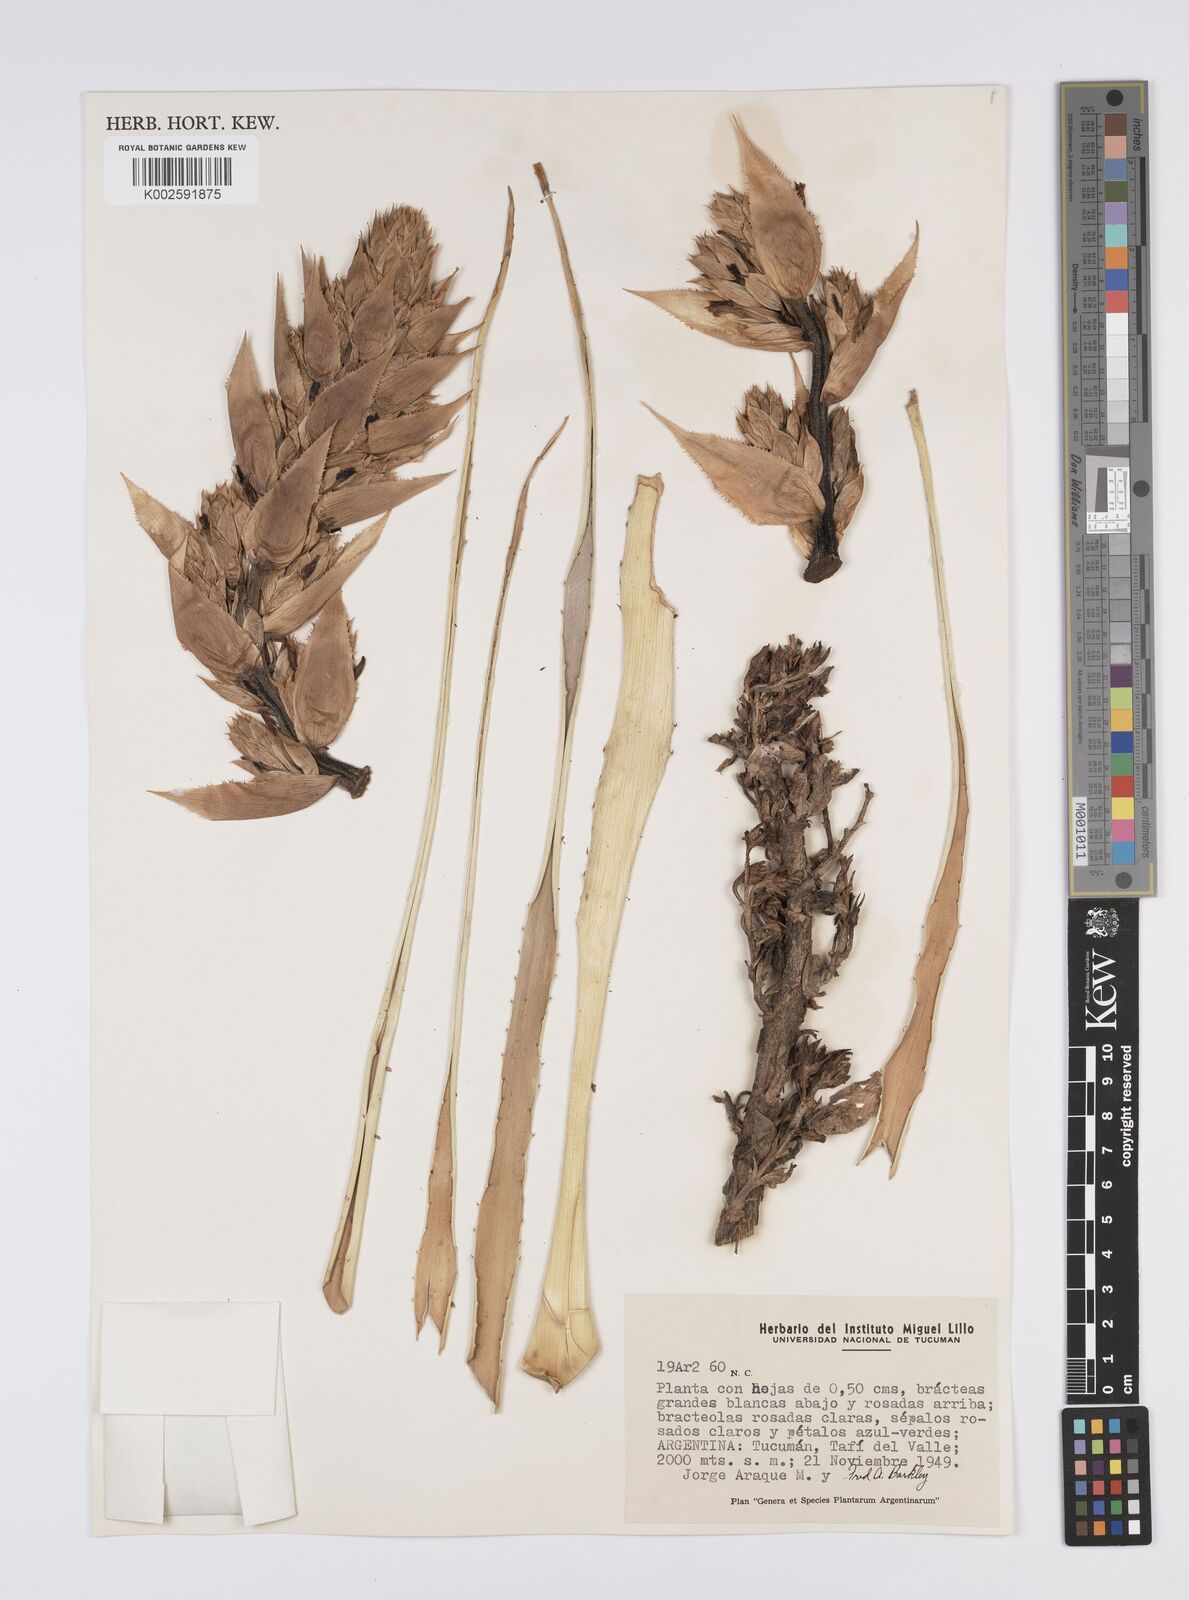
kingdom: Plantae
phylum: Tracheophyta
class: Liliopsida
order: Poales
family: Bromeliaceae
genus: Aechmea
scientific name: Aechmea
